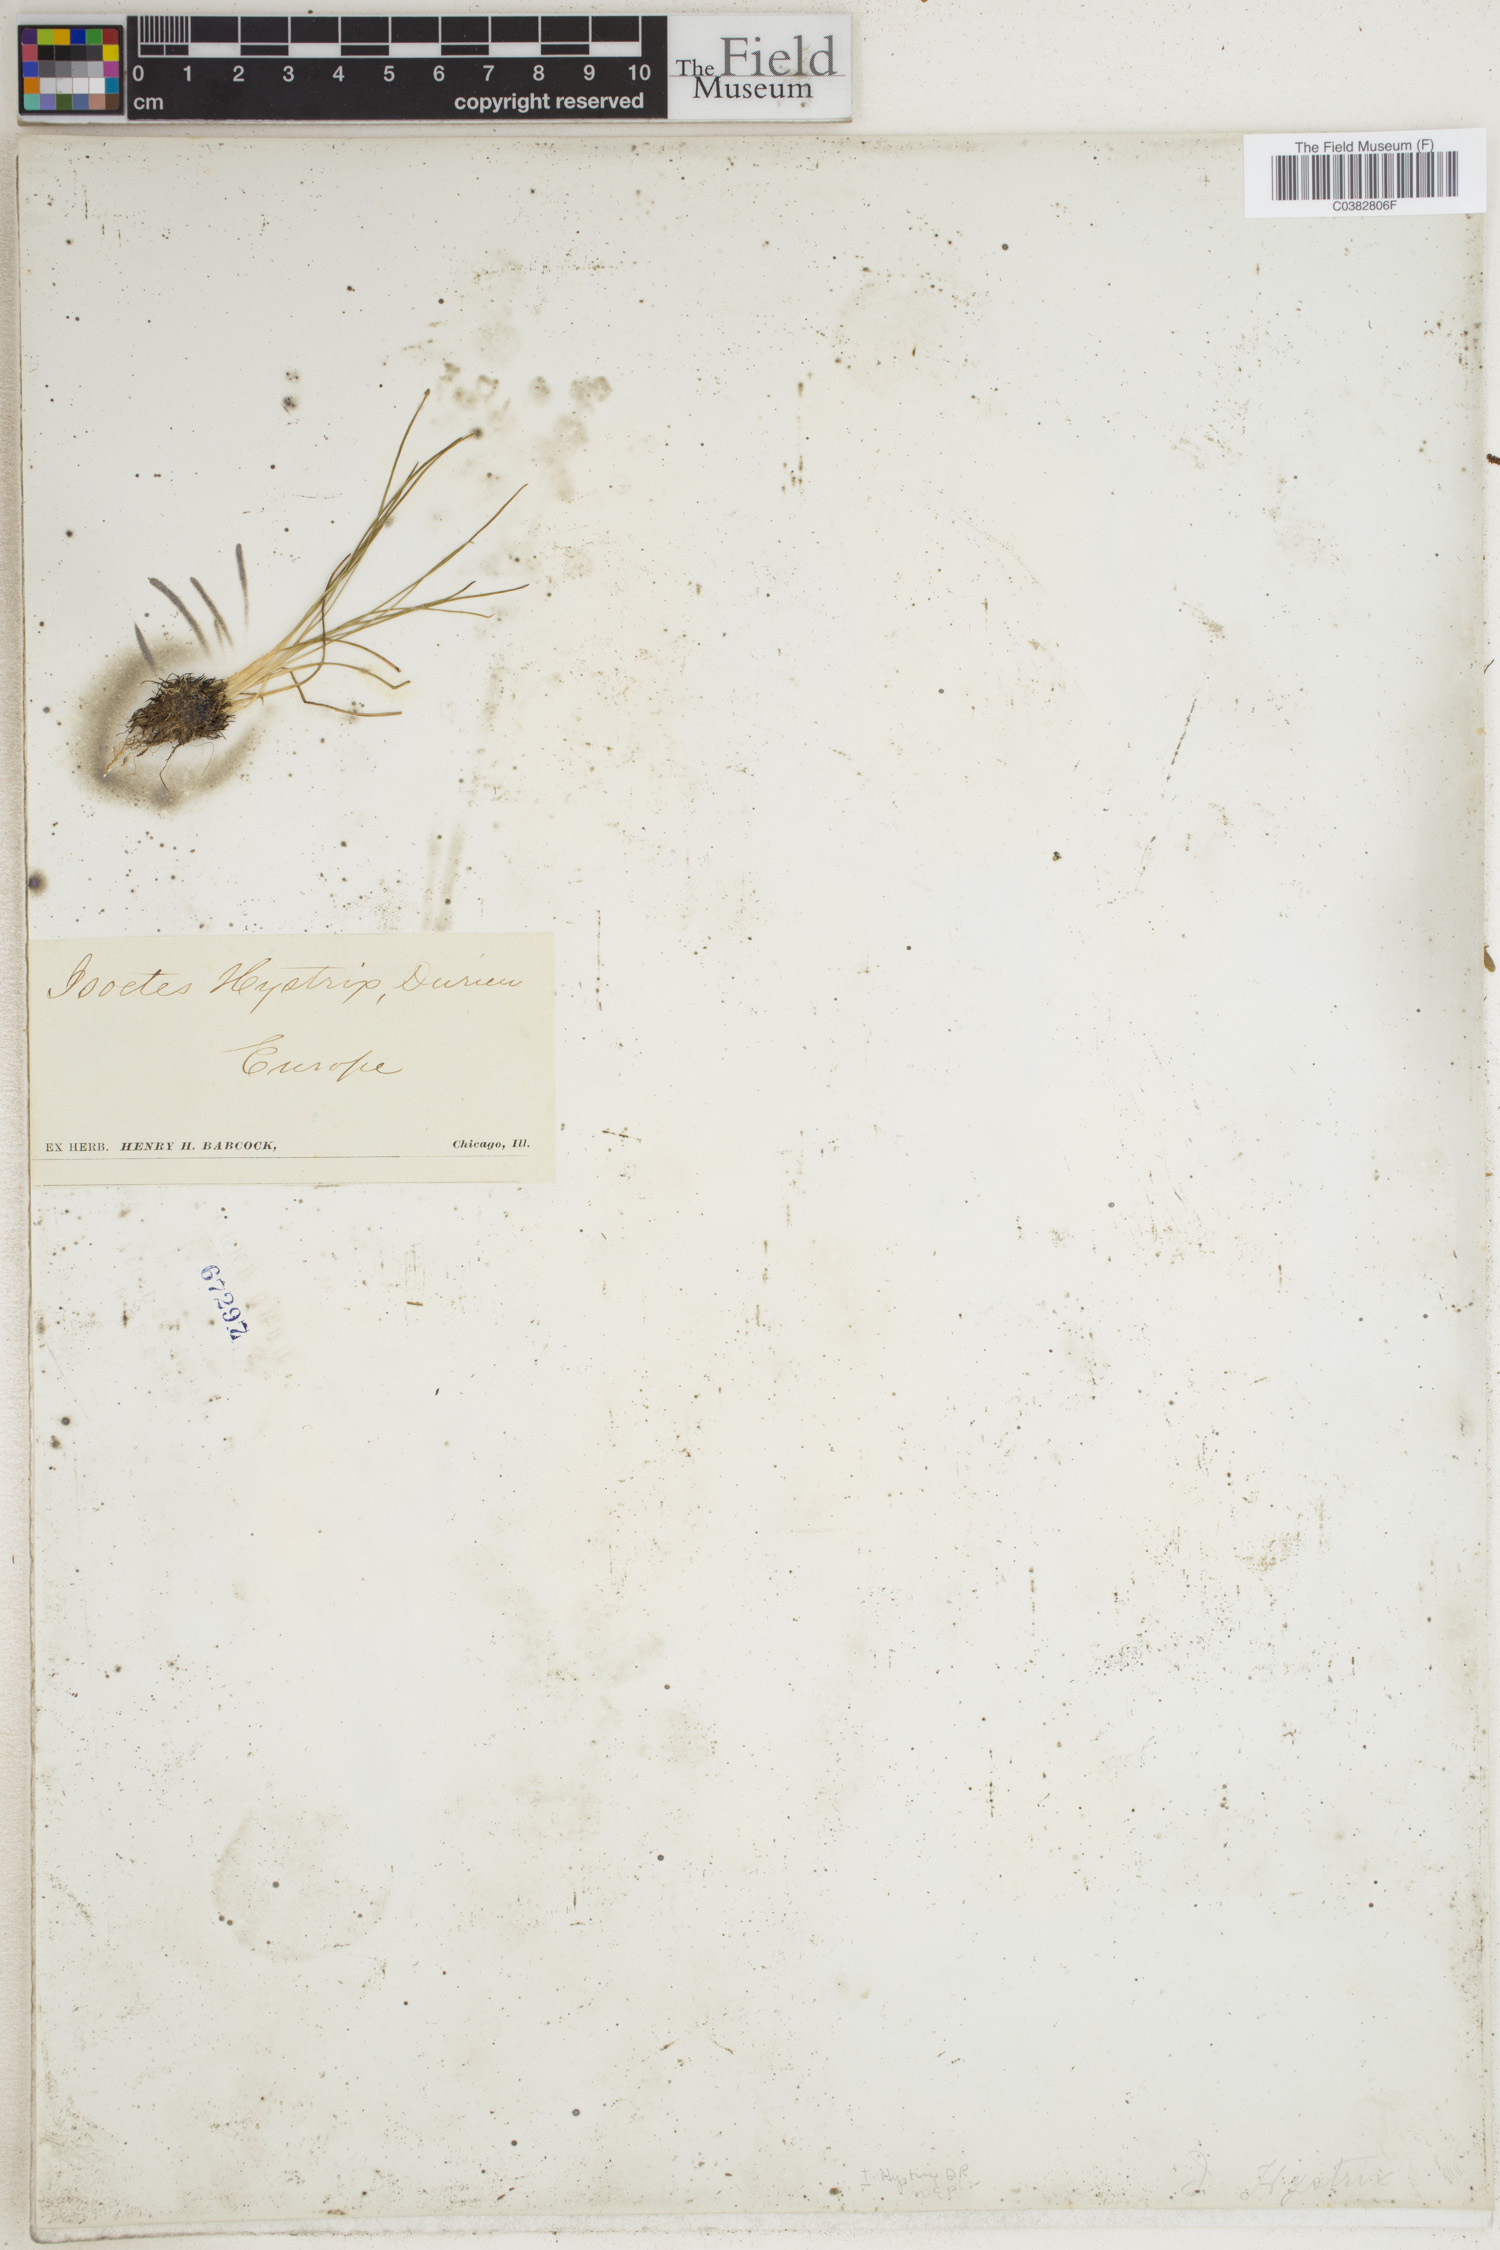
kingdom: Plantae
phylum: Tracheophyta
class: Lycopodiopsida
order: Isoetales
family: Isoetaceae
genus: Isoetes
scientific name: Isoetes histrix
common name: Land quillwort
